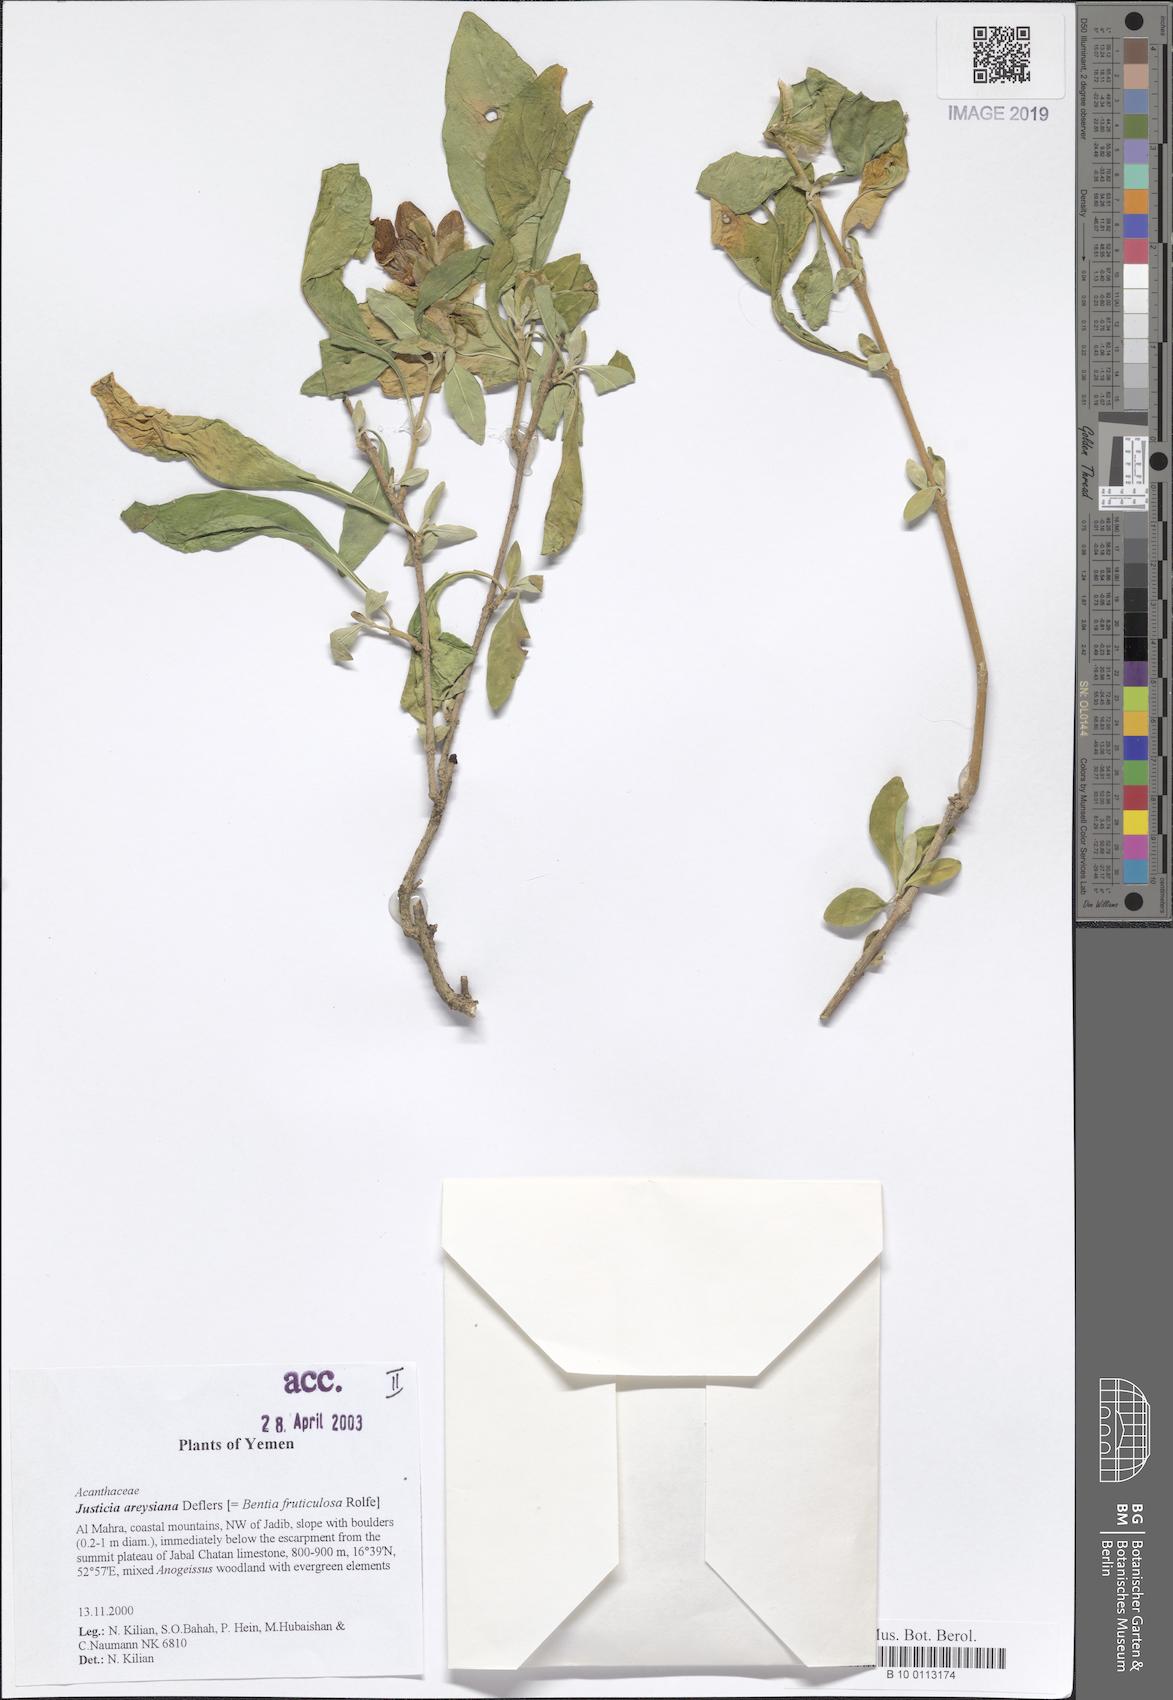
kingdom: Plantae
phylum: Tracheophyta
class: Magnoliopsida
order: Lamiales
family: Acanthaceae
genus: Justicia
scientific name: Justicia areysiana
